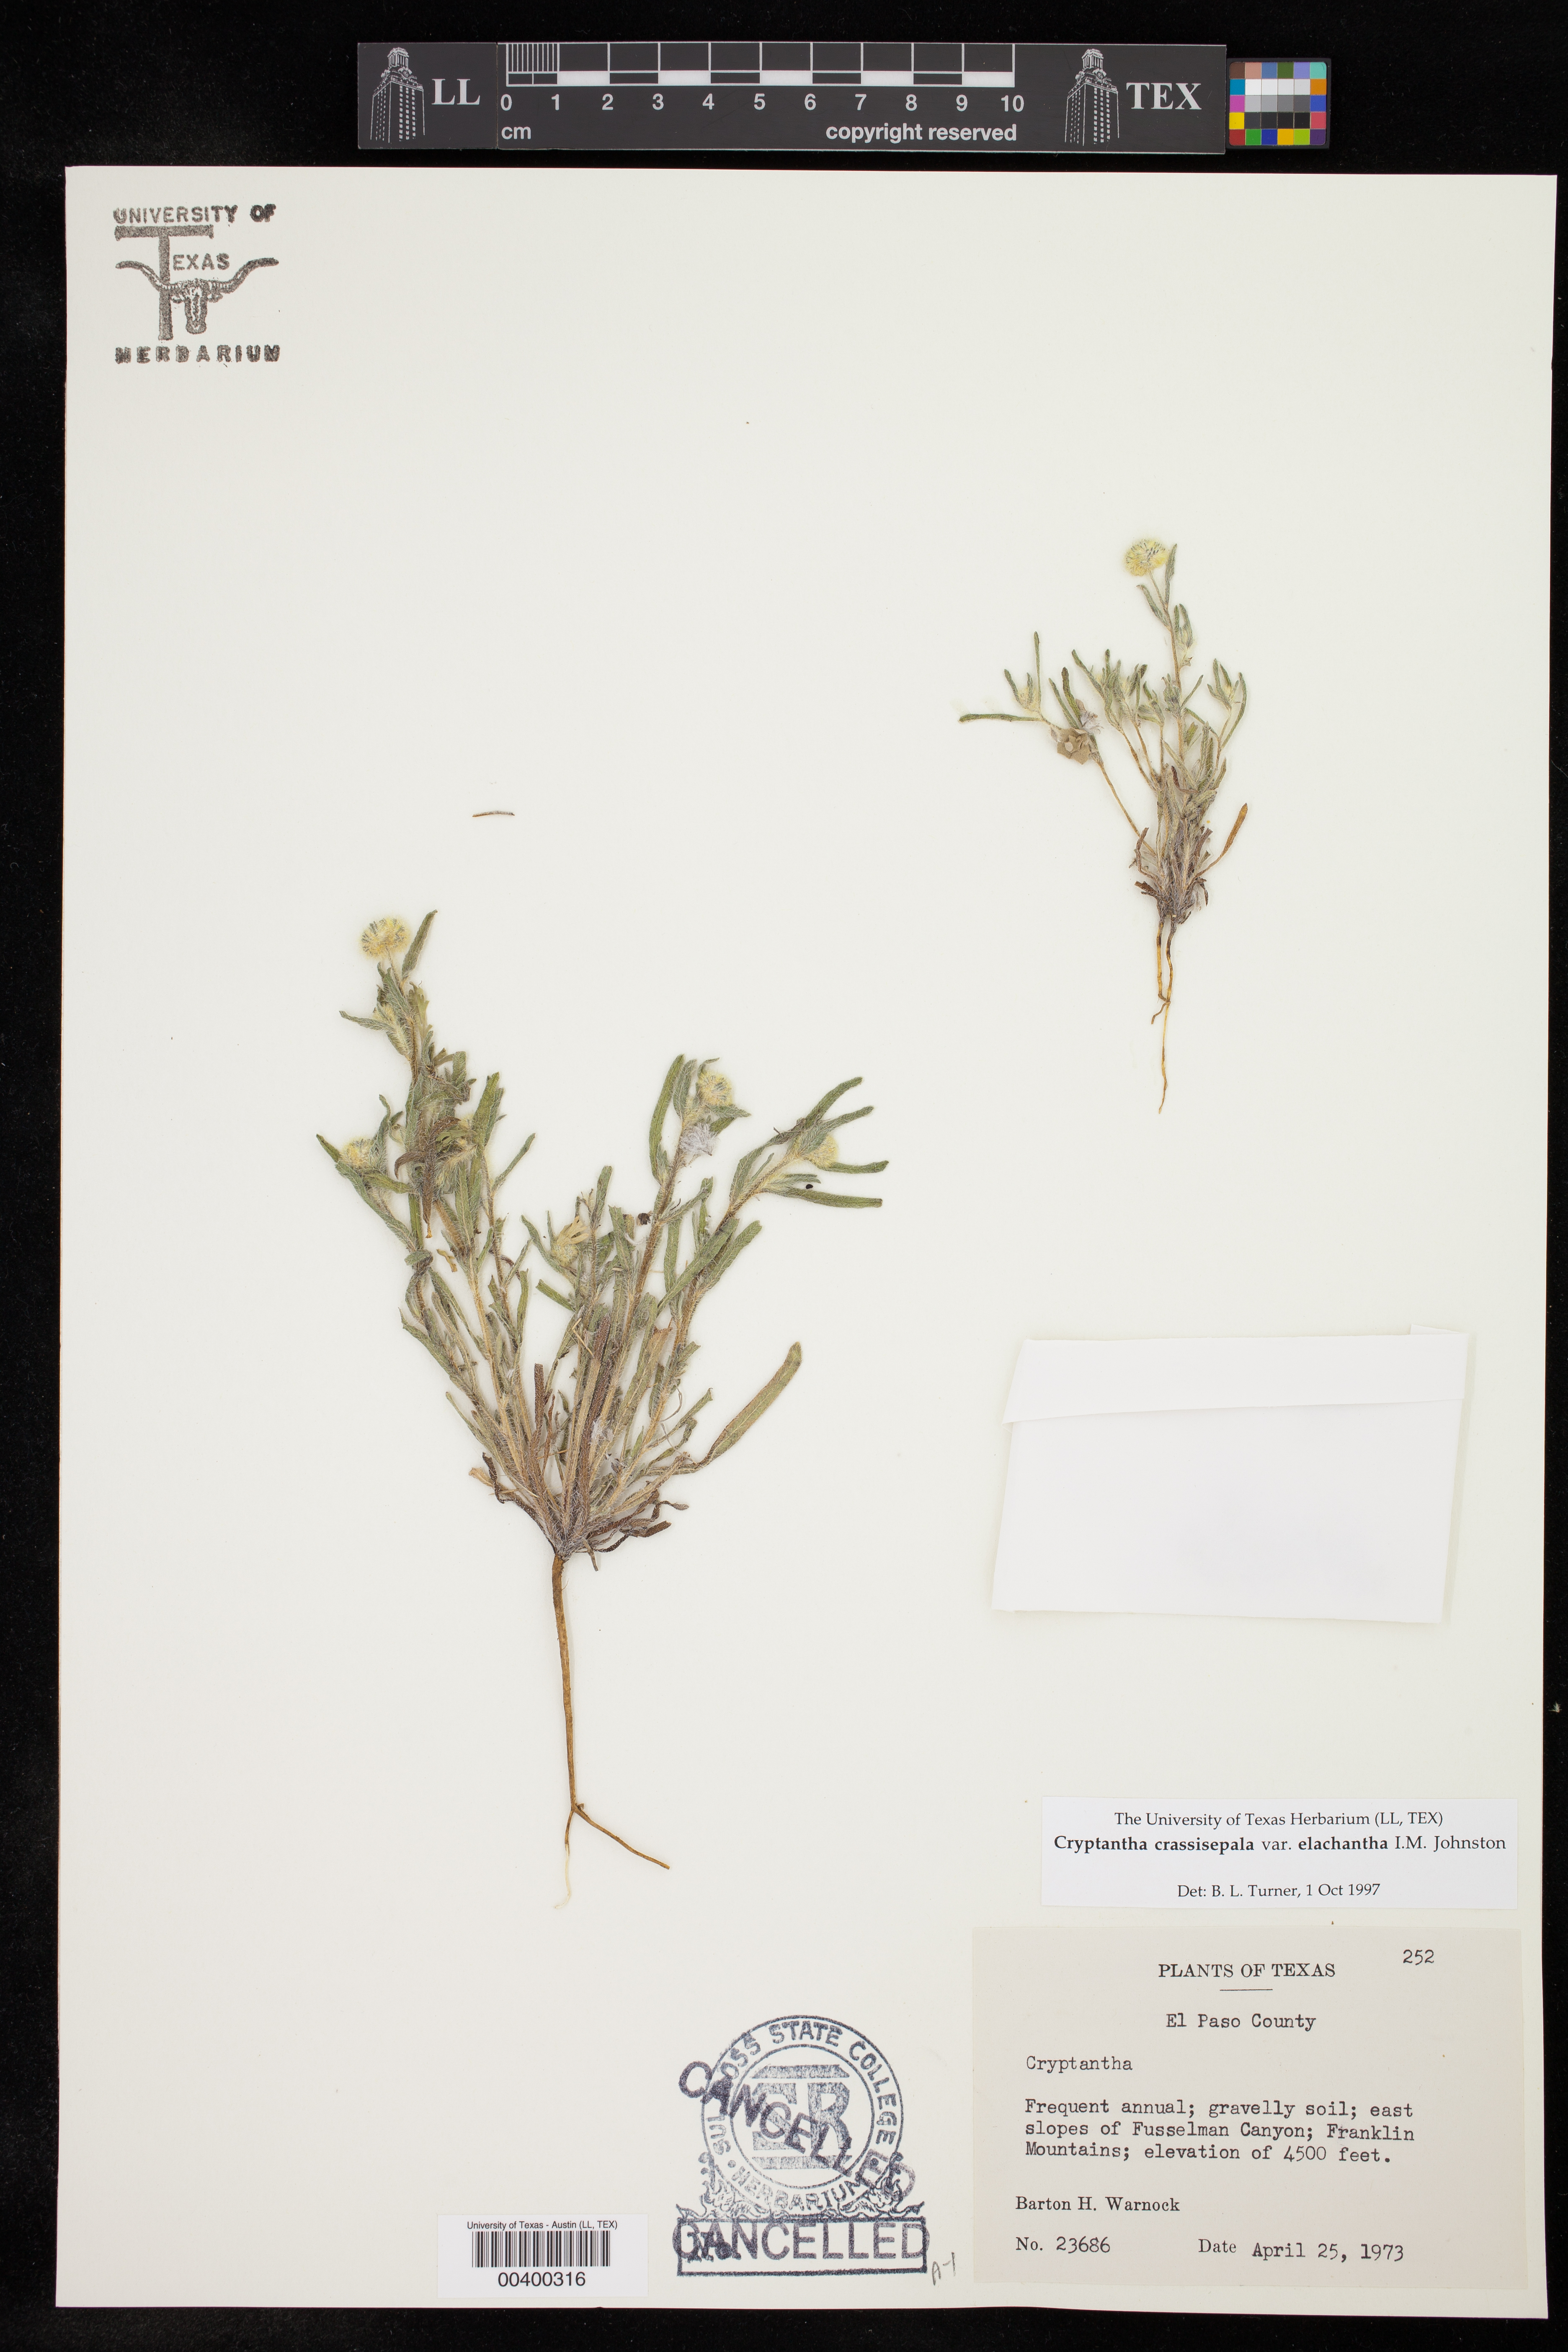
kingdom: Plantae
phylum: Tracheophyta
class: Magnoliopsida
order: Boraginales
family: Boraginaceae
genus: Cryptantha
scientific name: Cryptantha crassisepala
